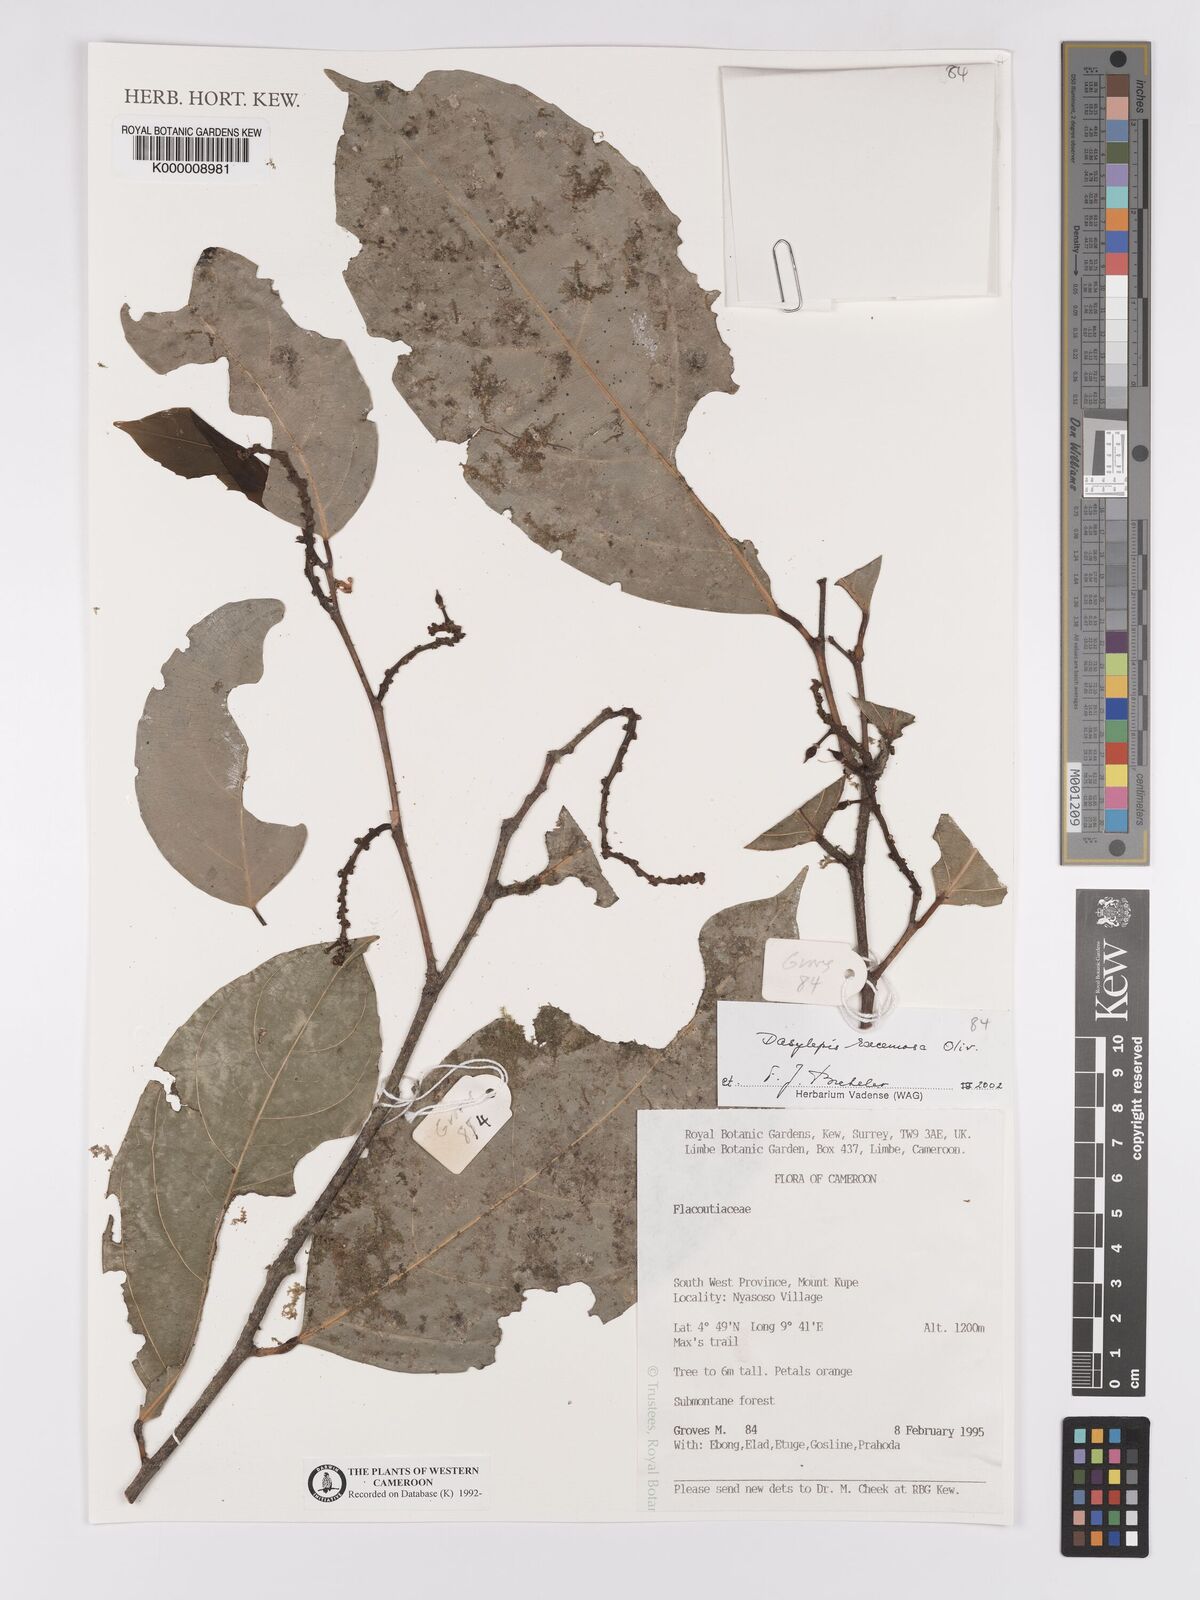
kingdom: Plantae
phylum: Tracheophyta
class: Magnoliopsida
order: Malpighiales
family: Achariaceae
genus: Dasylepis
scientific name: Dasylepis racemosa
